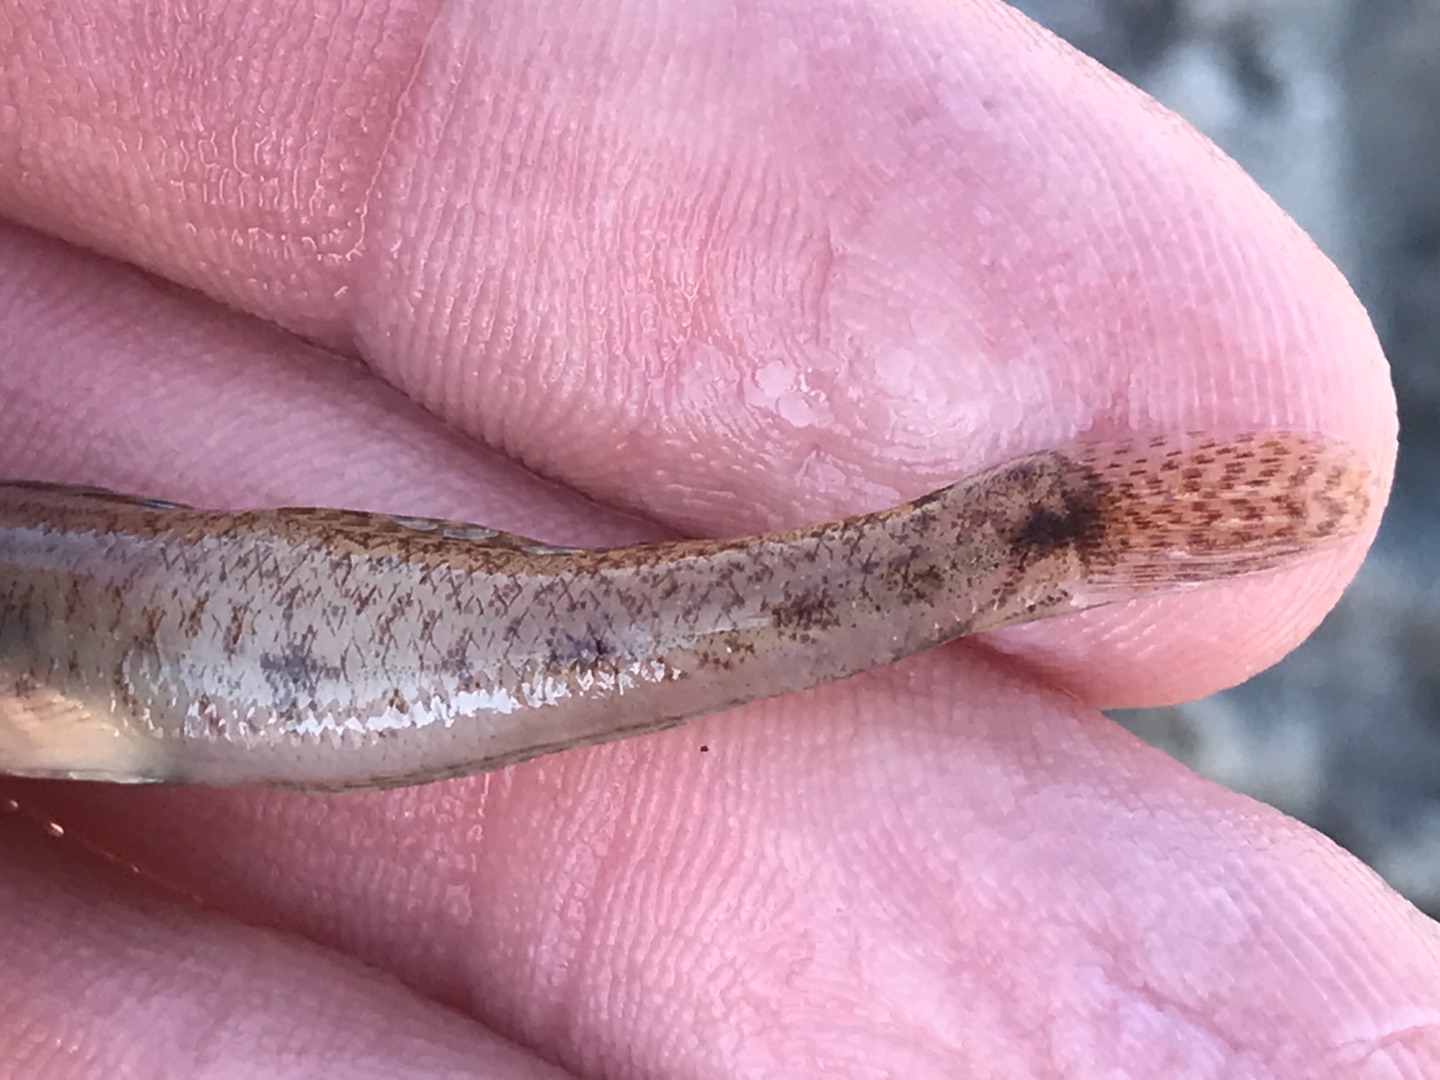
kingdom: Animalia
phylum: Chordata
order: Perciformes
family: Gobiidae
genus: Pomatoschistus
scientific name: Pomatoschistus minutus
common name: Sandkutling
